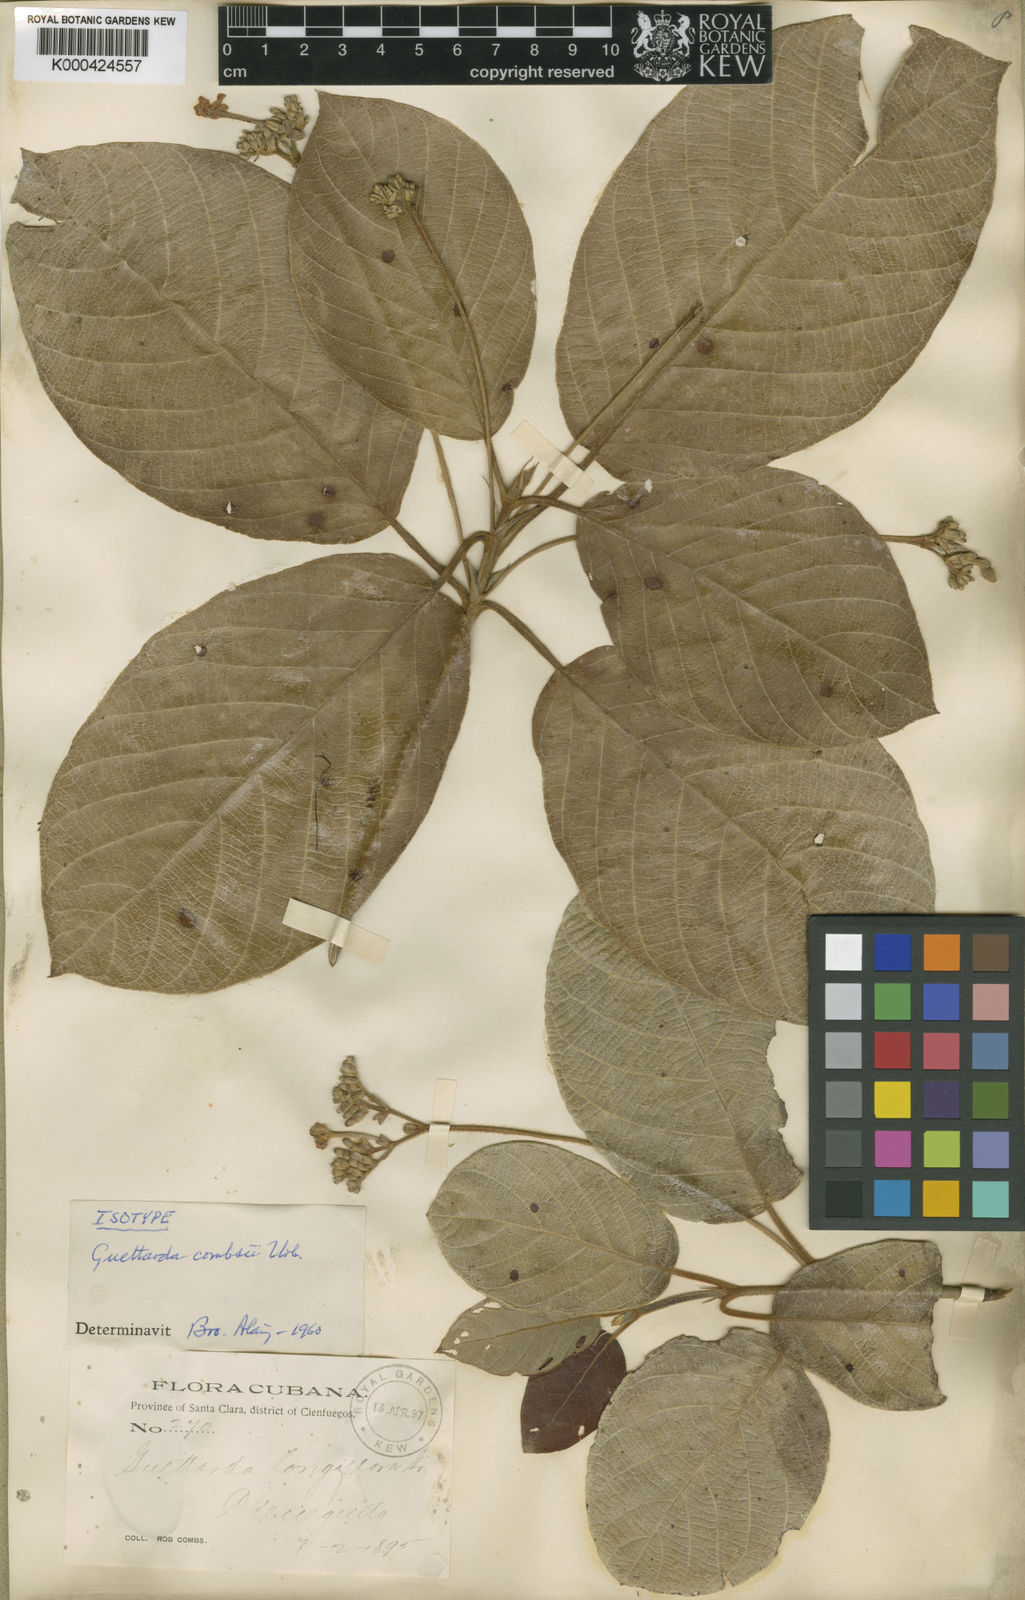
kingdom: Plantae
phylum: Tracheophyta
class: Magnoliopsida
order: Gentianales
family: Rubiaceae
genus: Guettarda
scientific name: Guettarda combsii
